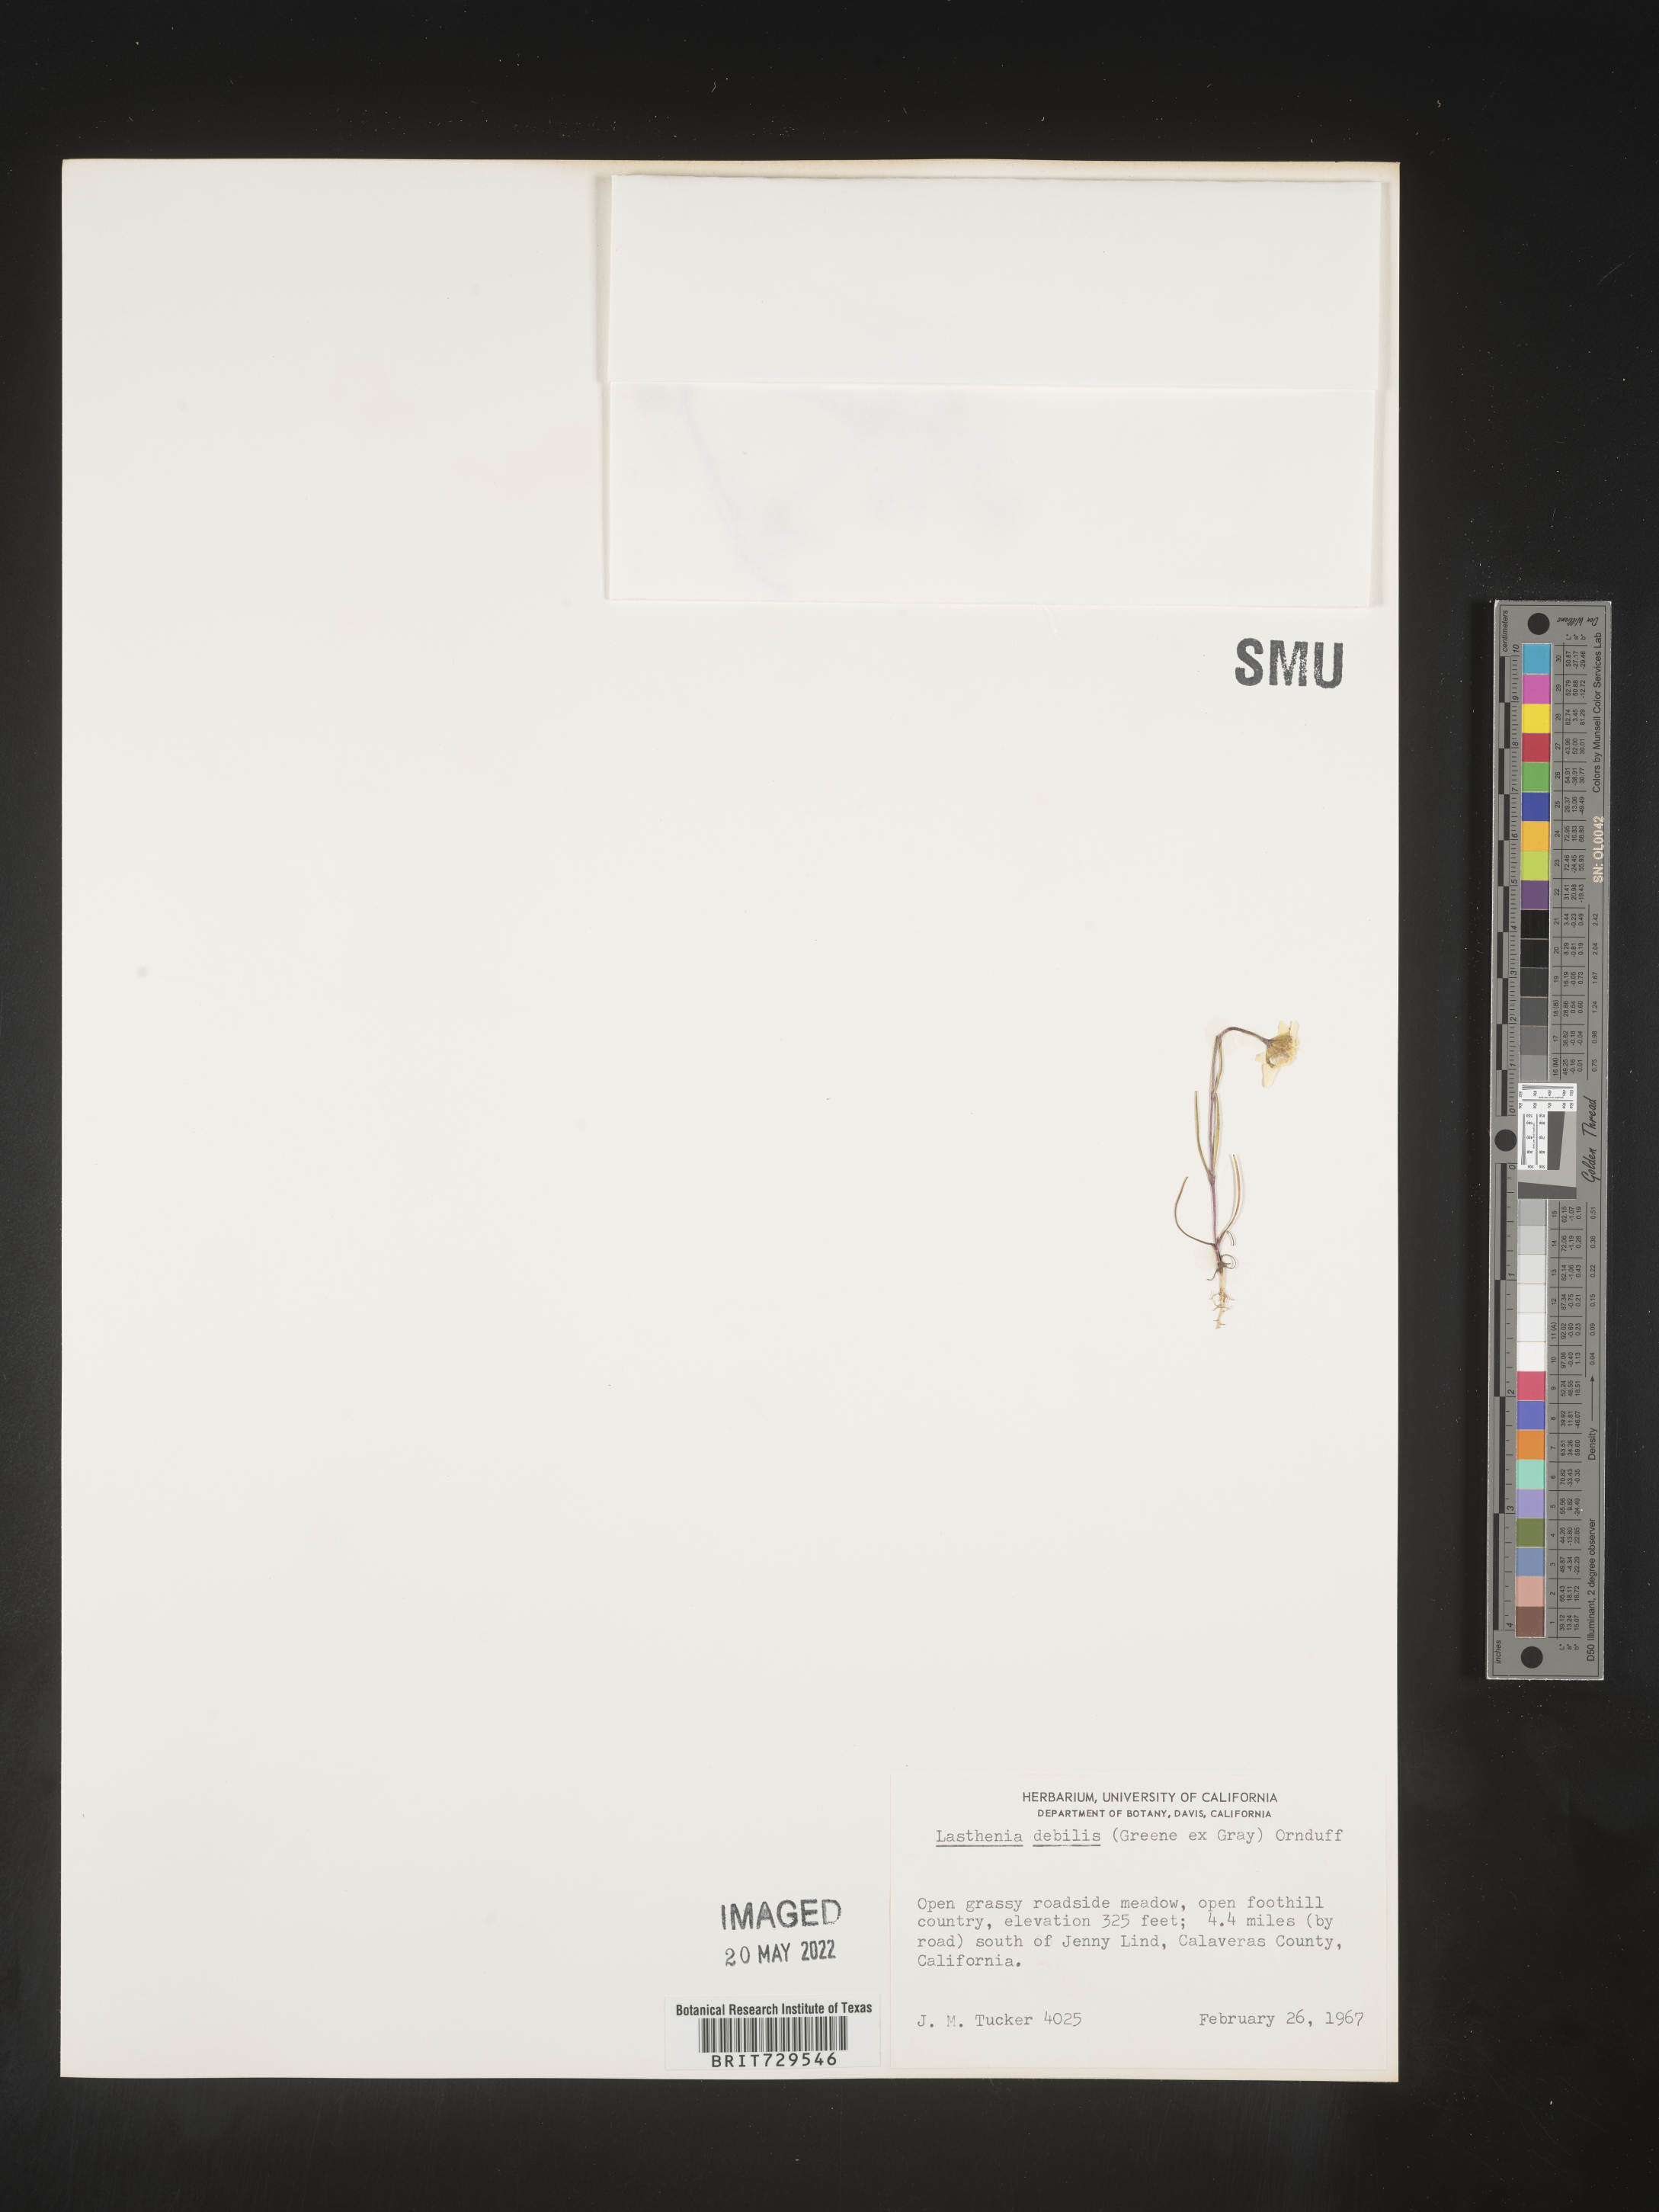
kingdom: Plantae
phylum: Tracheophyta
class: Magnoliopsida
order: Asterales
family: Asteraceae
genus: Lasthenia
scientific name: Lasthenia
